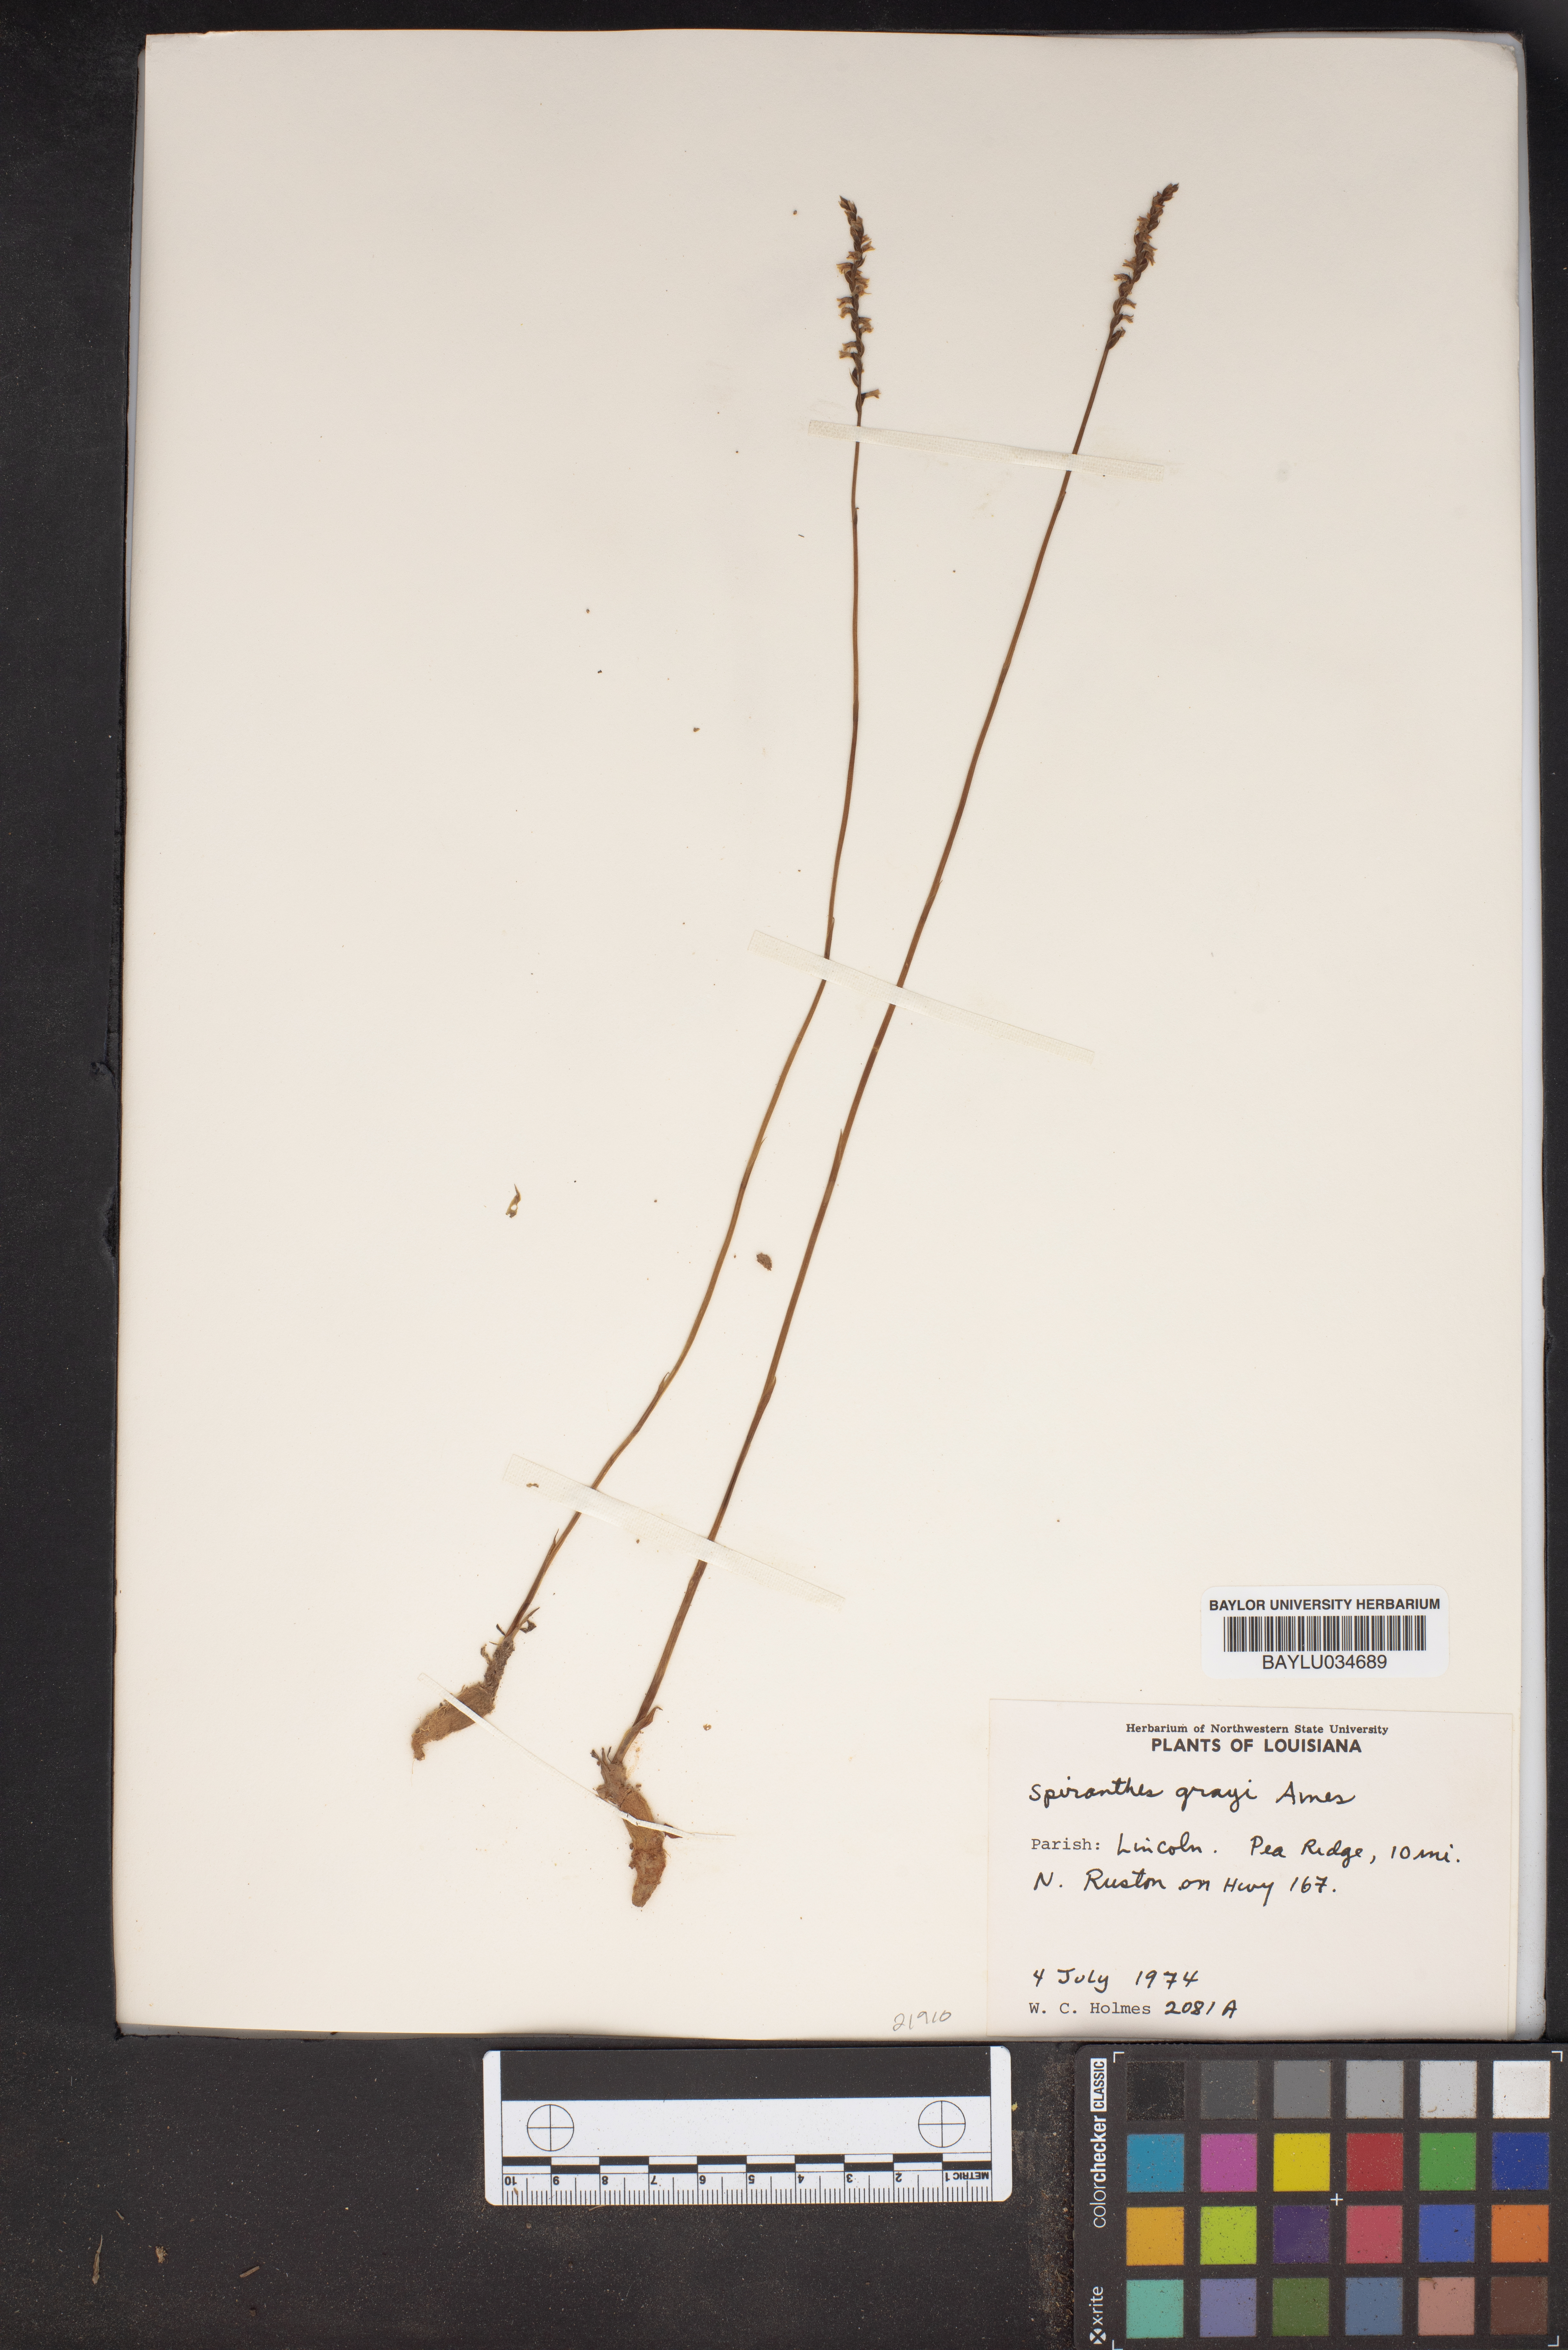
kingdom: Plantae
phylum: Tracheophyta
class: Liliopsida
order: Asparagales
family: Orchidaceae
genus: Spiranthes
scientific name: Spiranthes tuberosa
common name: Little ladies'-tresses
